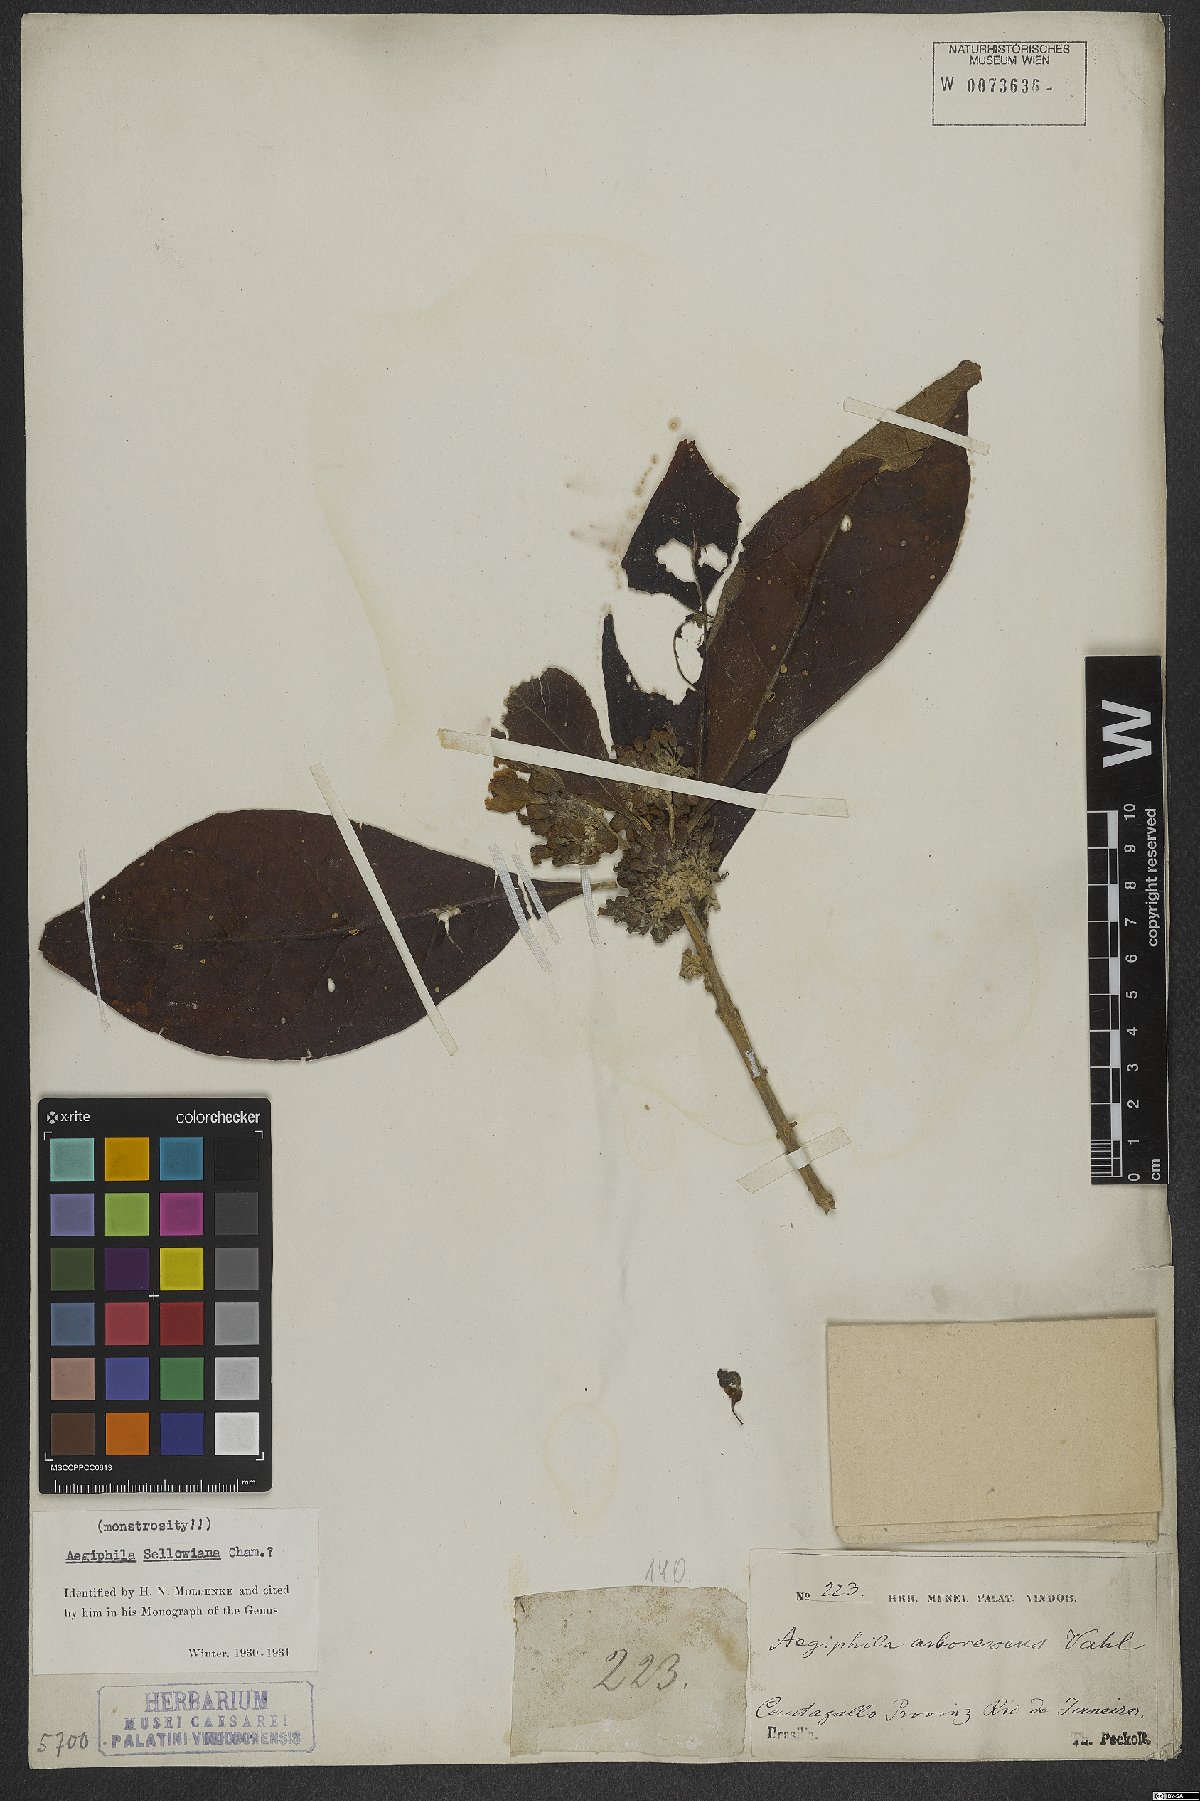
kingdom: Plantae
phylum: Tracheophyta
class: Magnoliopsida
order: Lamiales
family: Lamiaceae
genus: Aegiphila
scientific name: Aegiphila verticillata
